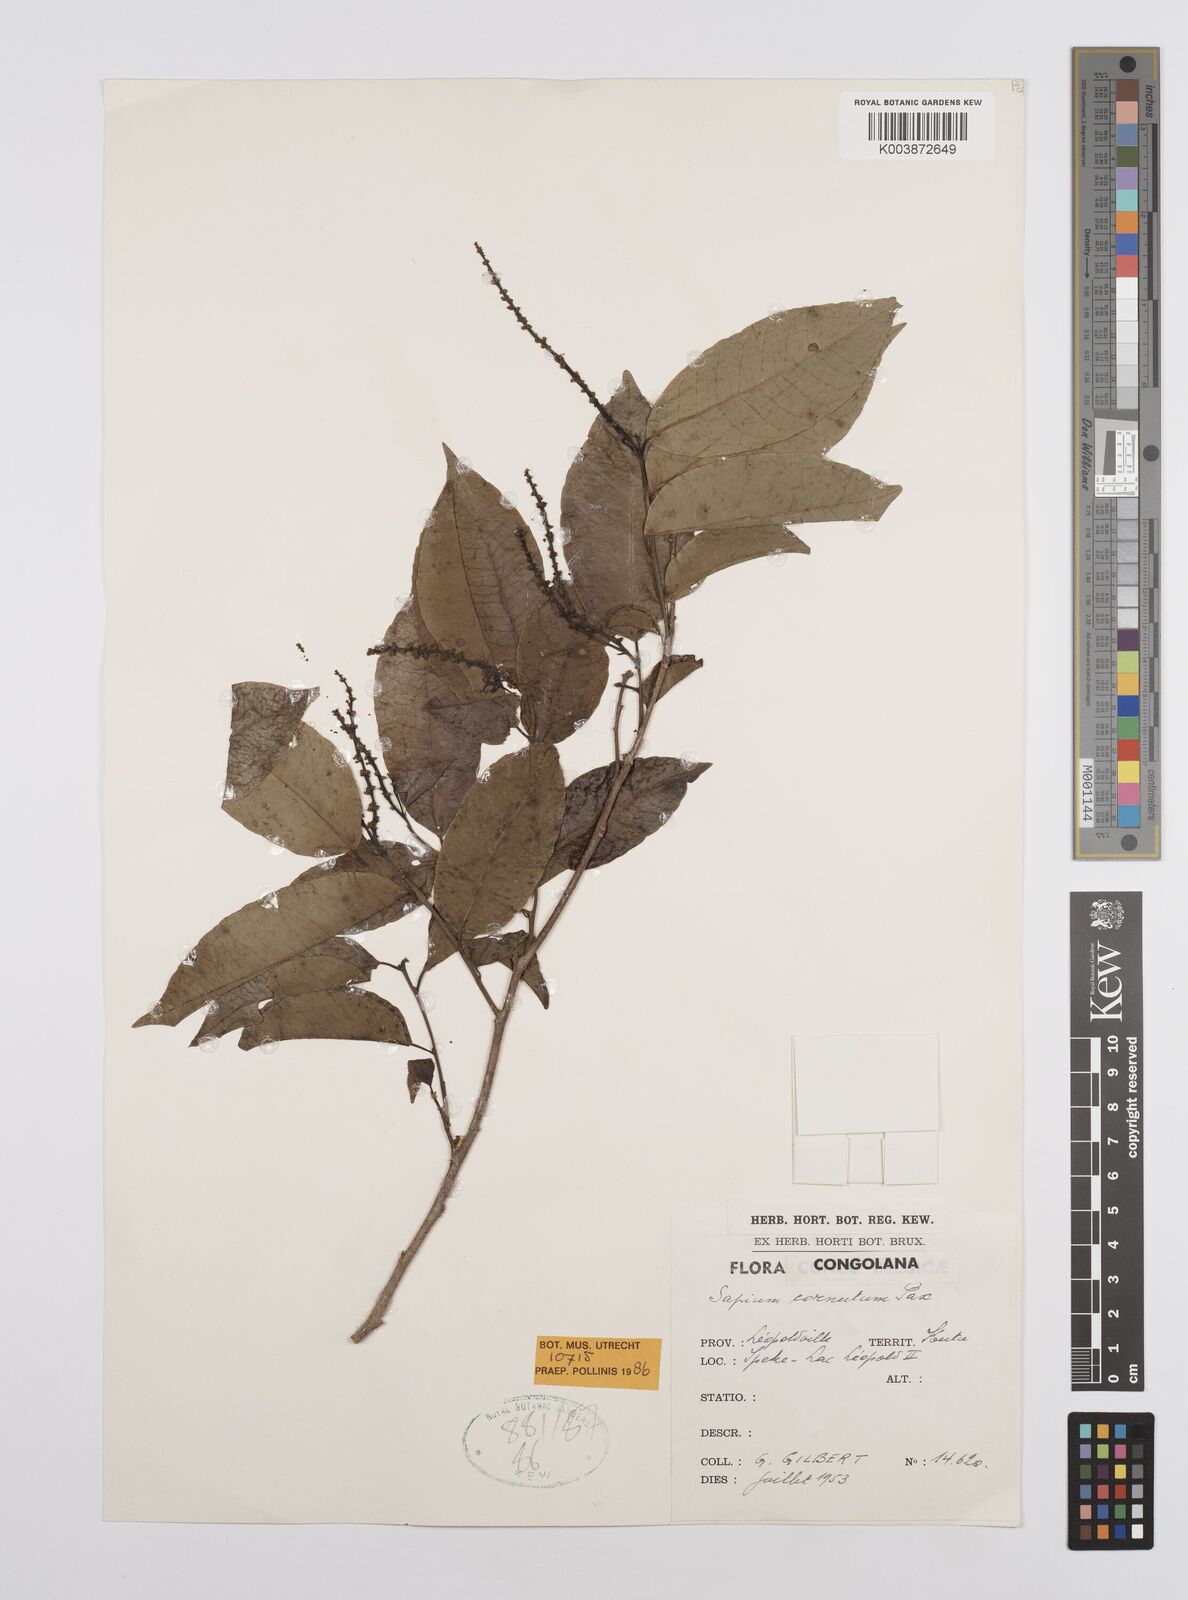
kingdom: Plantae
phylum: Tracheophyta
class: Magnoliopsida
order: Malpighiales
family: Euphorbiaceae
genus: Sclerocroton
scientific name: Sclerocroton cornutus
